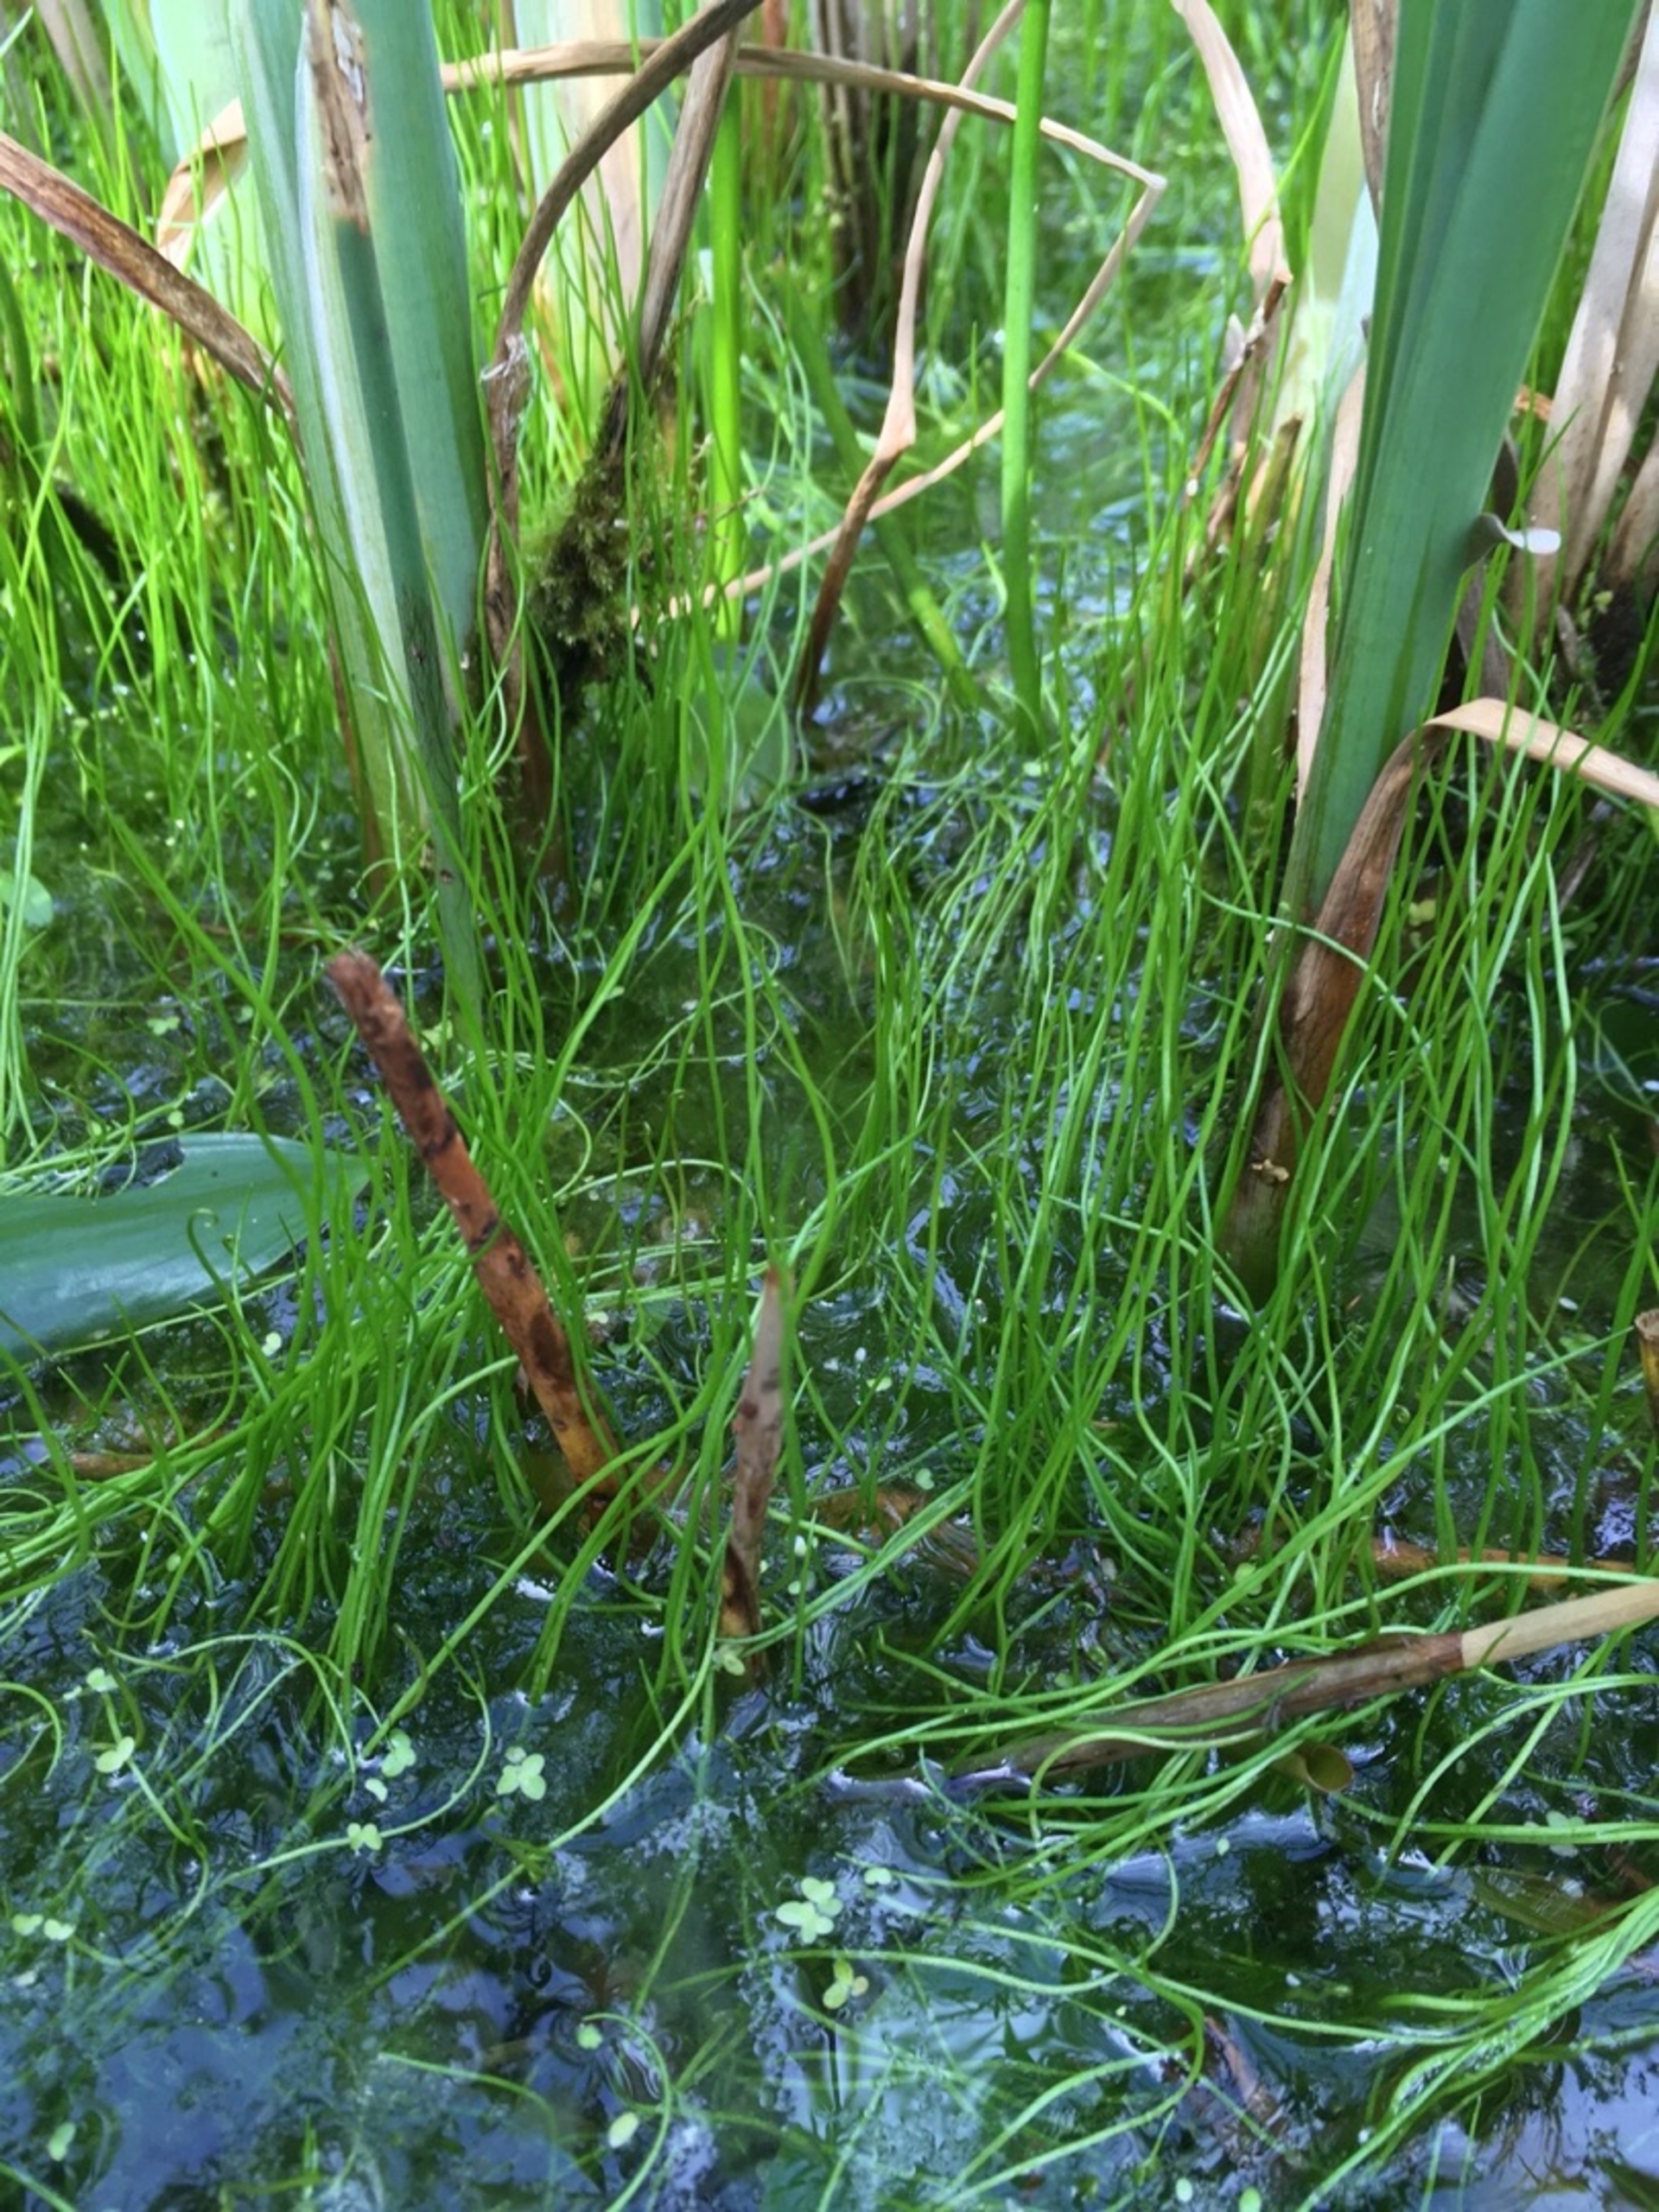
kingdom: Plantae
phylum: Tracheophyta
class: Polypodiopsida
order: Salviniales
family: Marsileaceae
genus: Pilularia
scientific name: Pilularia globulifera
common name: Pilledrager
